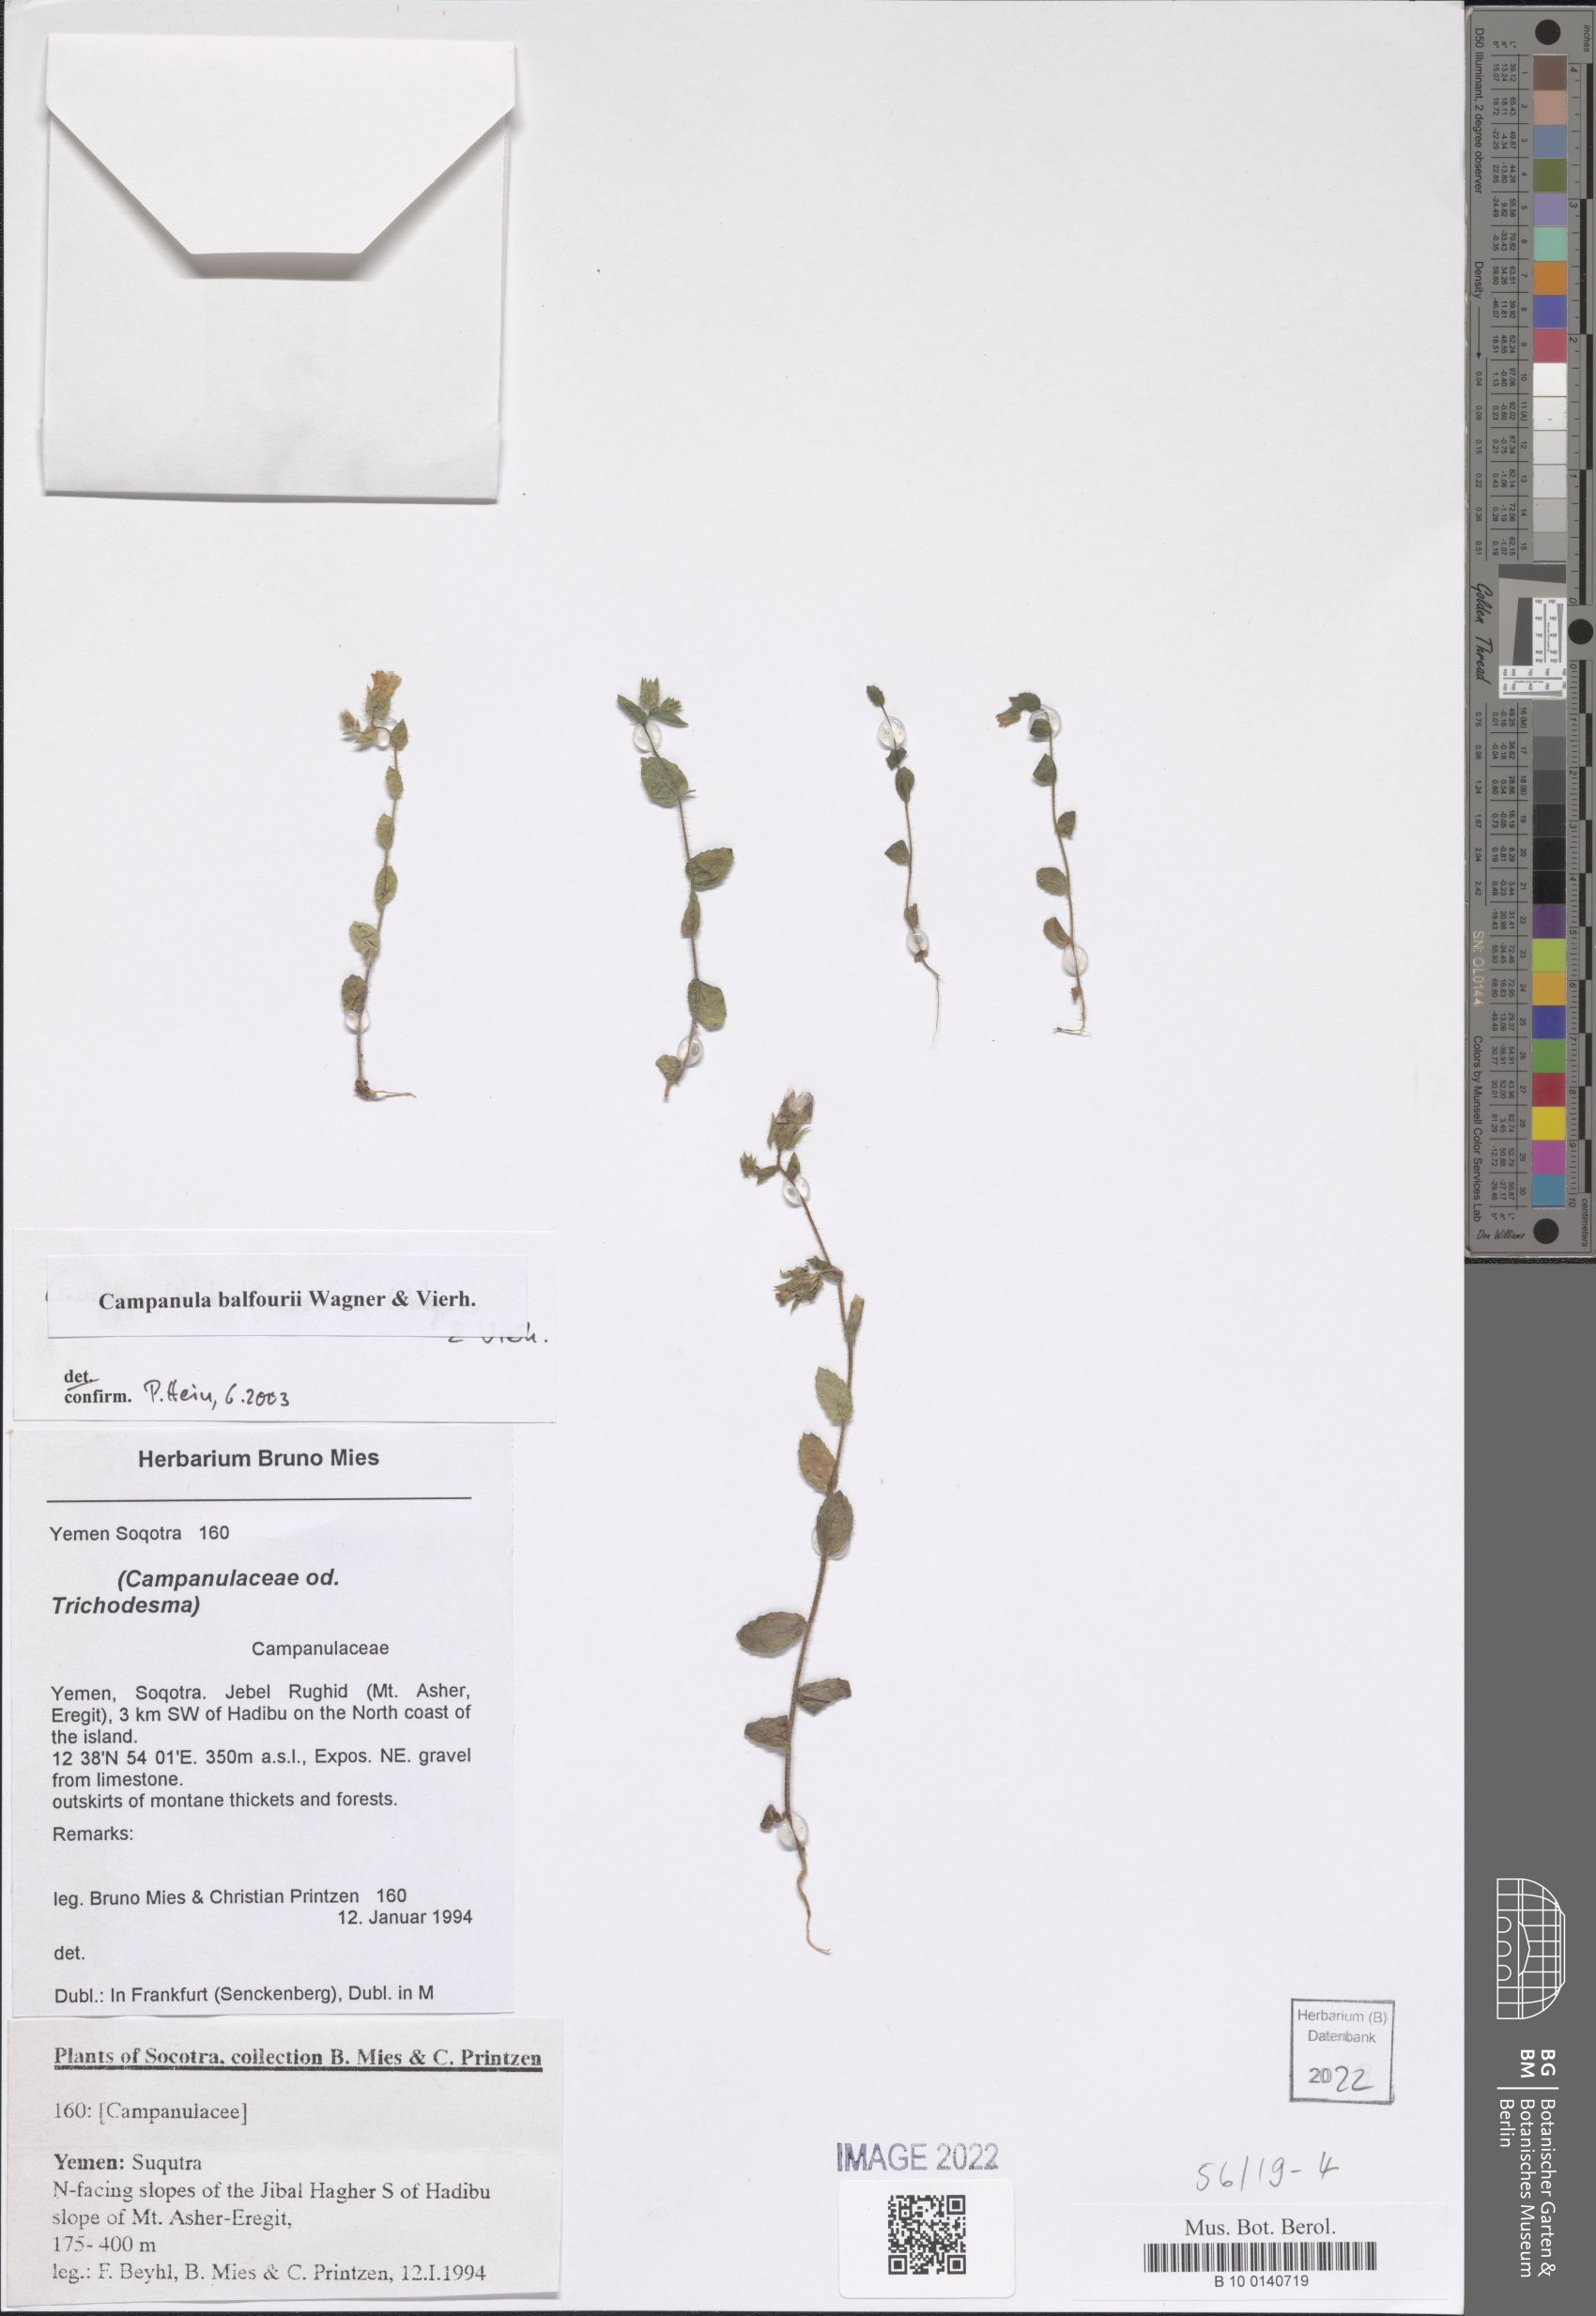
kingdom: Plantae
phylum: Tracheophyta
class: Magnoliopsida
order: Asterales
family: Campanulaceae
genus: Campanula
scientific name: Campanula balfourii
